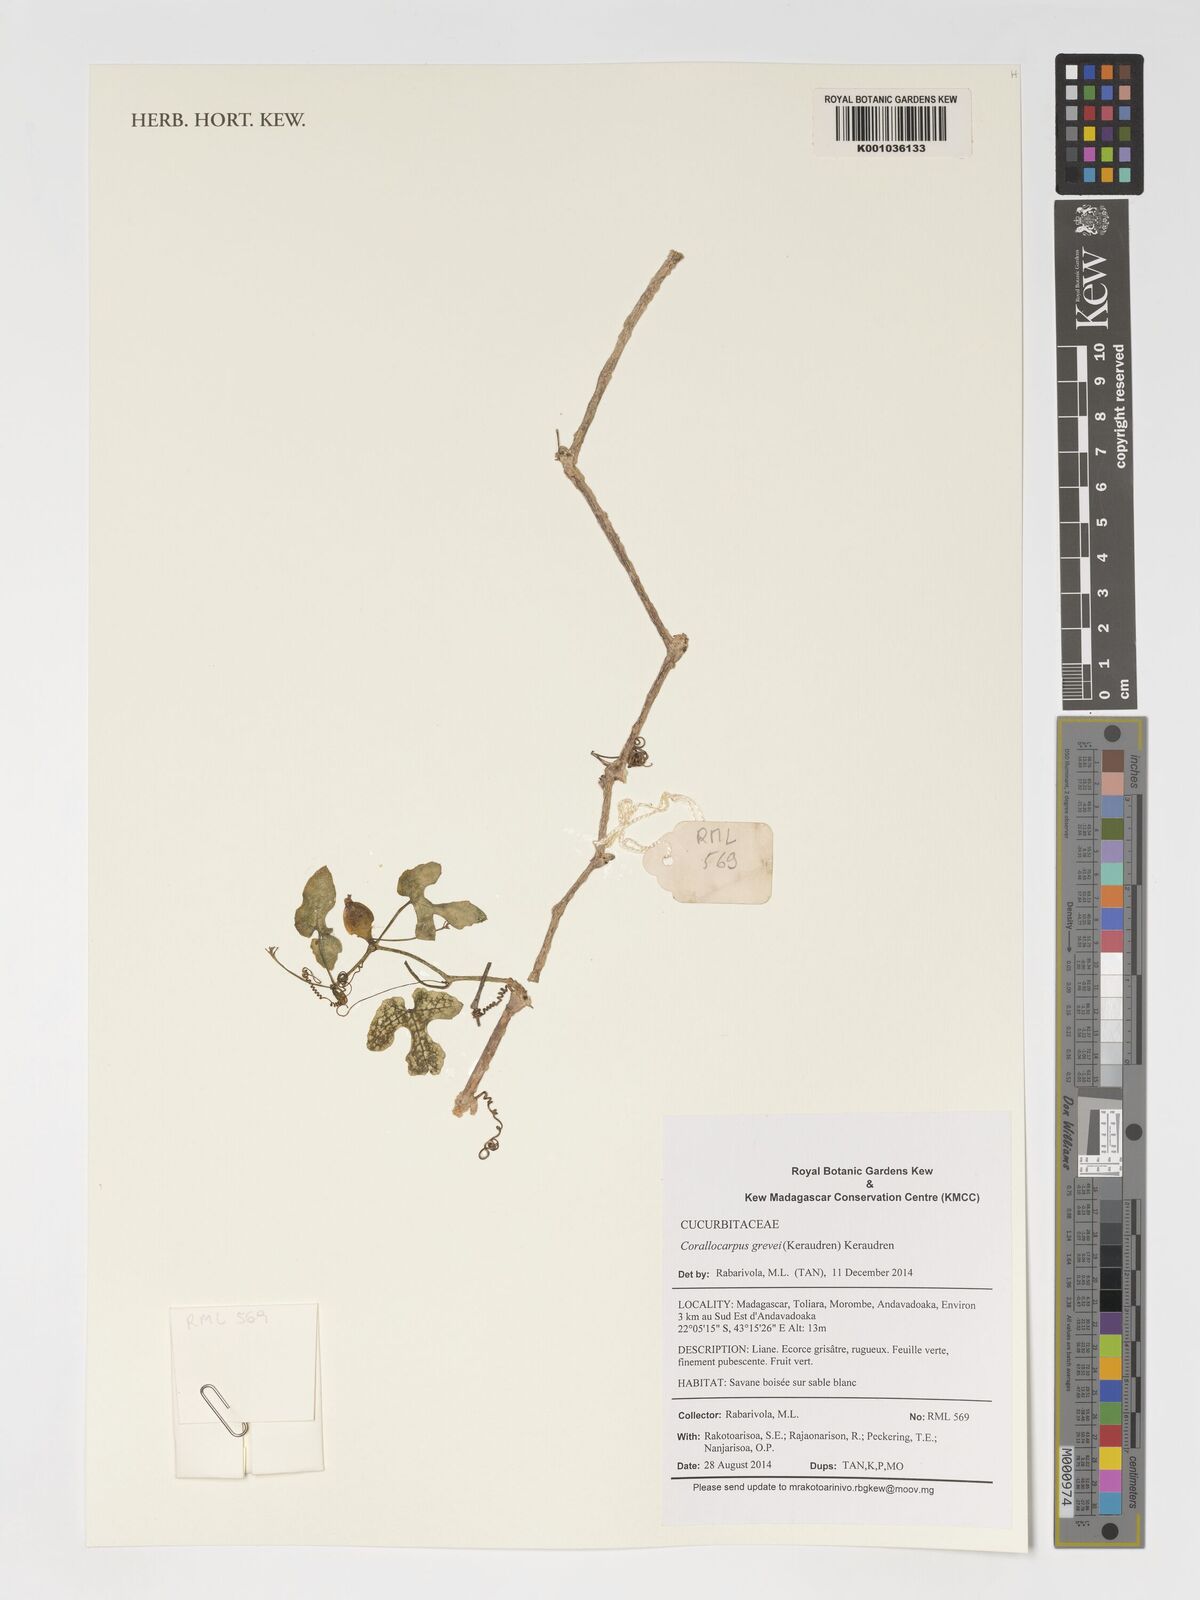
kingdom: Plantae
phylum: Tracheophyta
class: Magnoliopsida
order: Cucurbitales
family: Cucurbitaceae
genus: Corallocarpus
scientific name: Corallocarpus grevei
